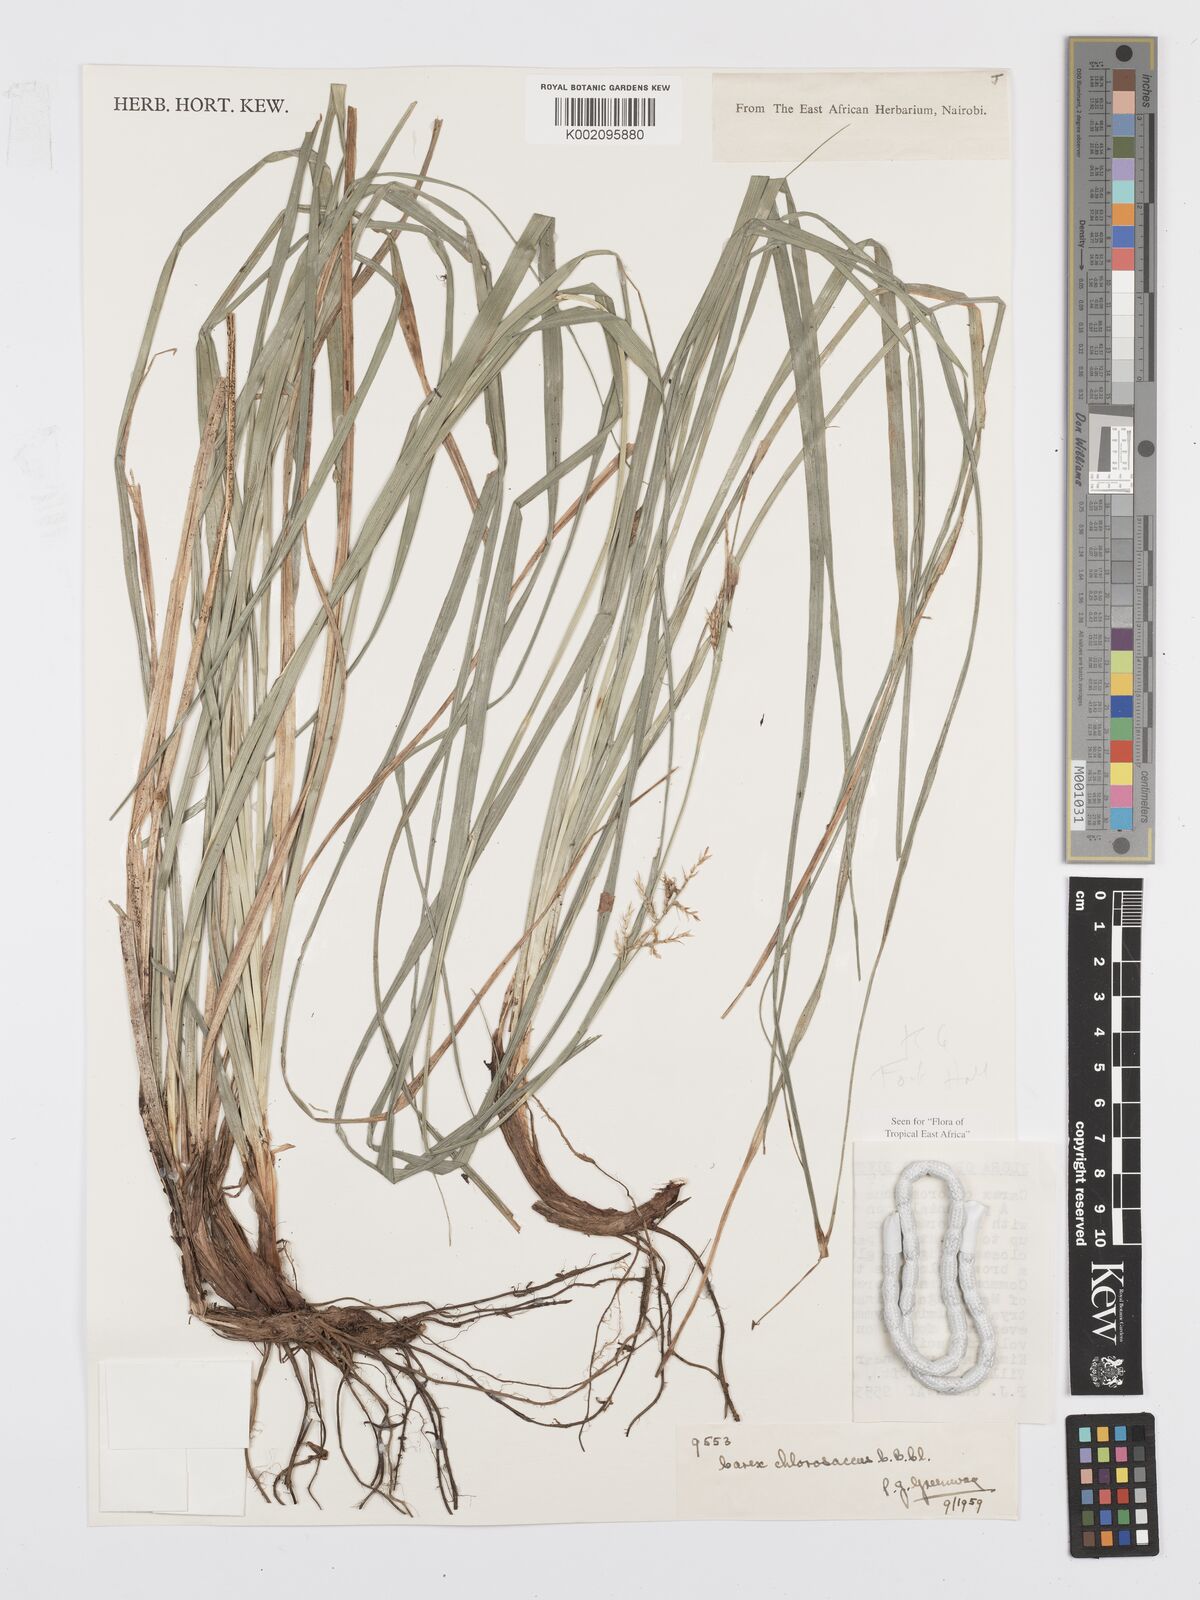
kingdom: Plantae
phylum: Tracheophyta
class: Liliopsida
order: Poales
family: Cyperaceae
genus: Carex
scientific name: Carex chlorosaccus
